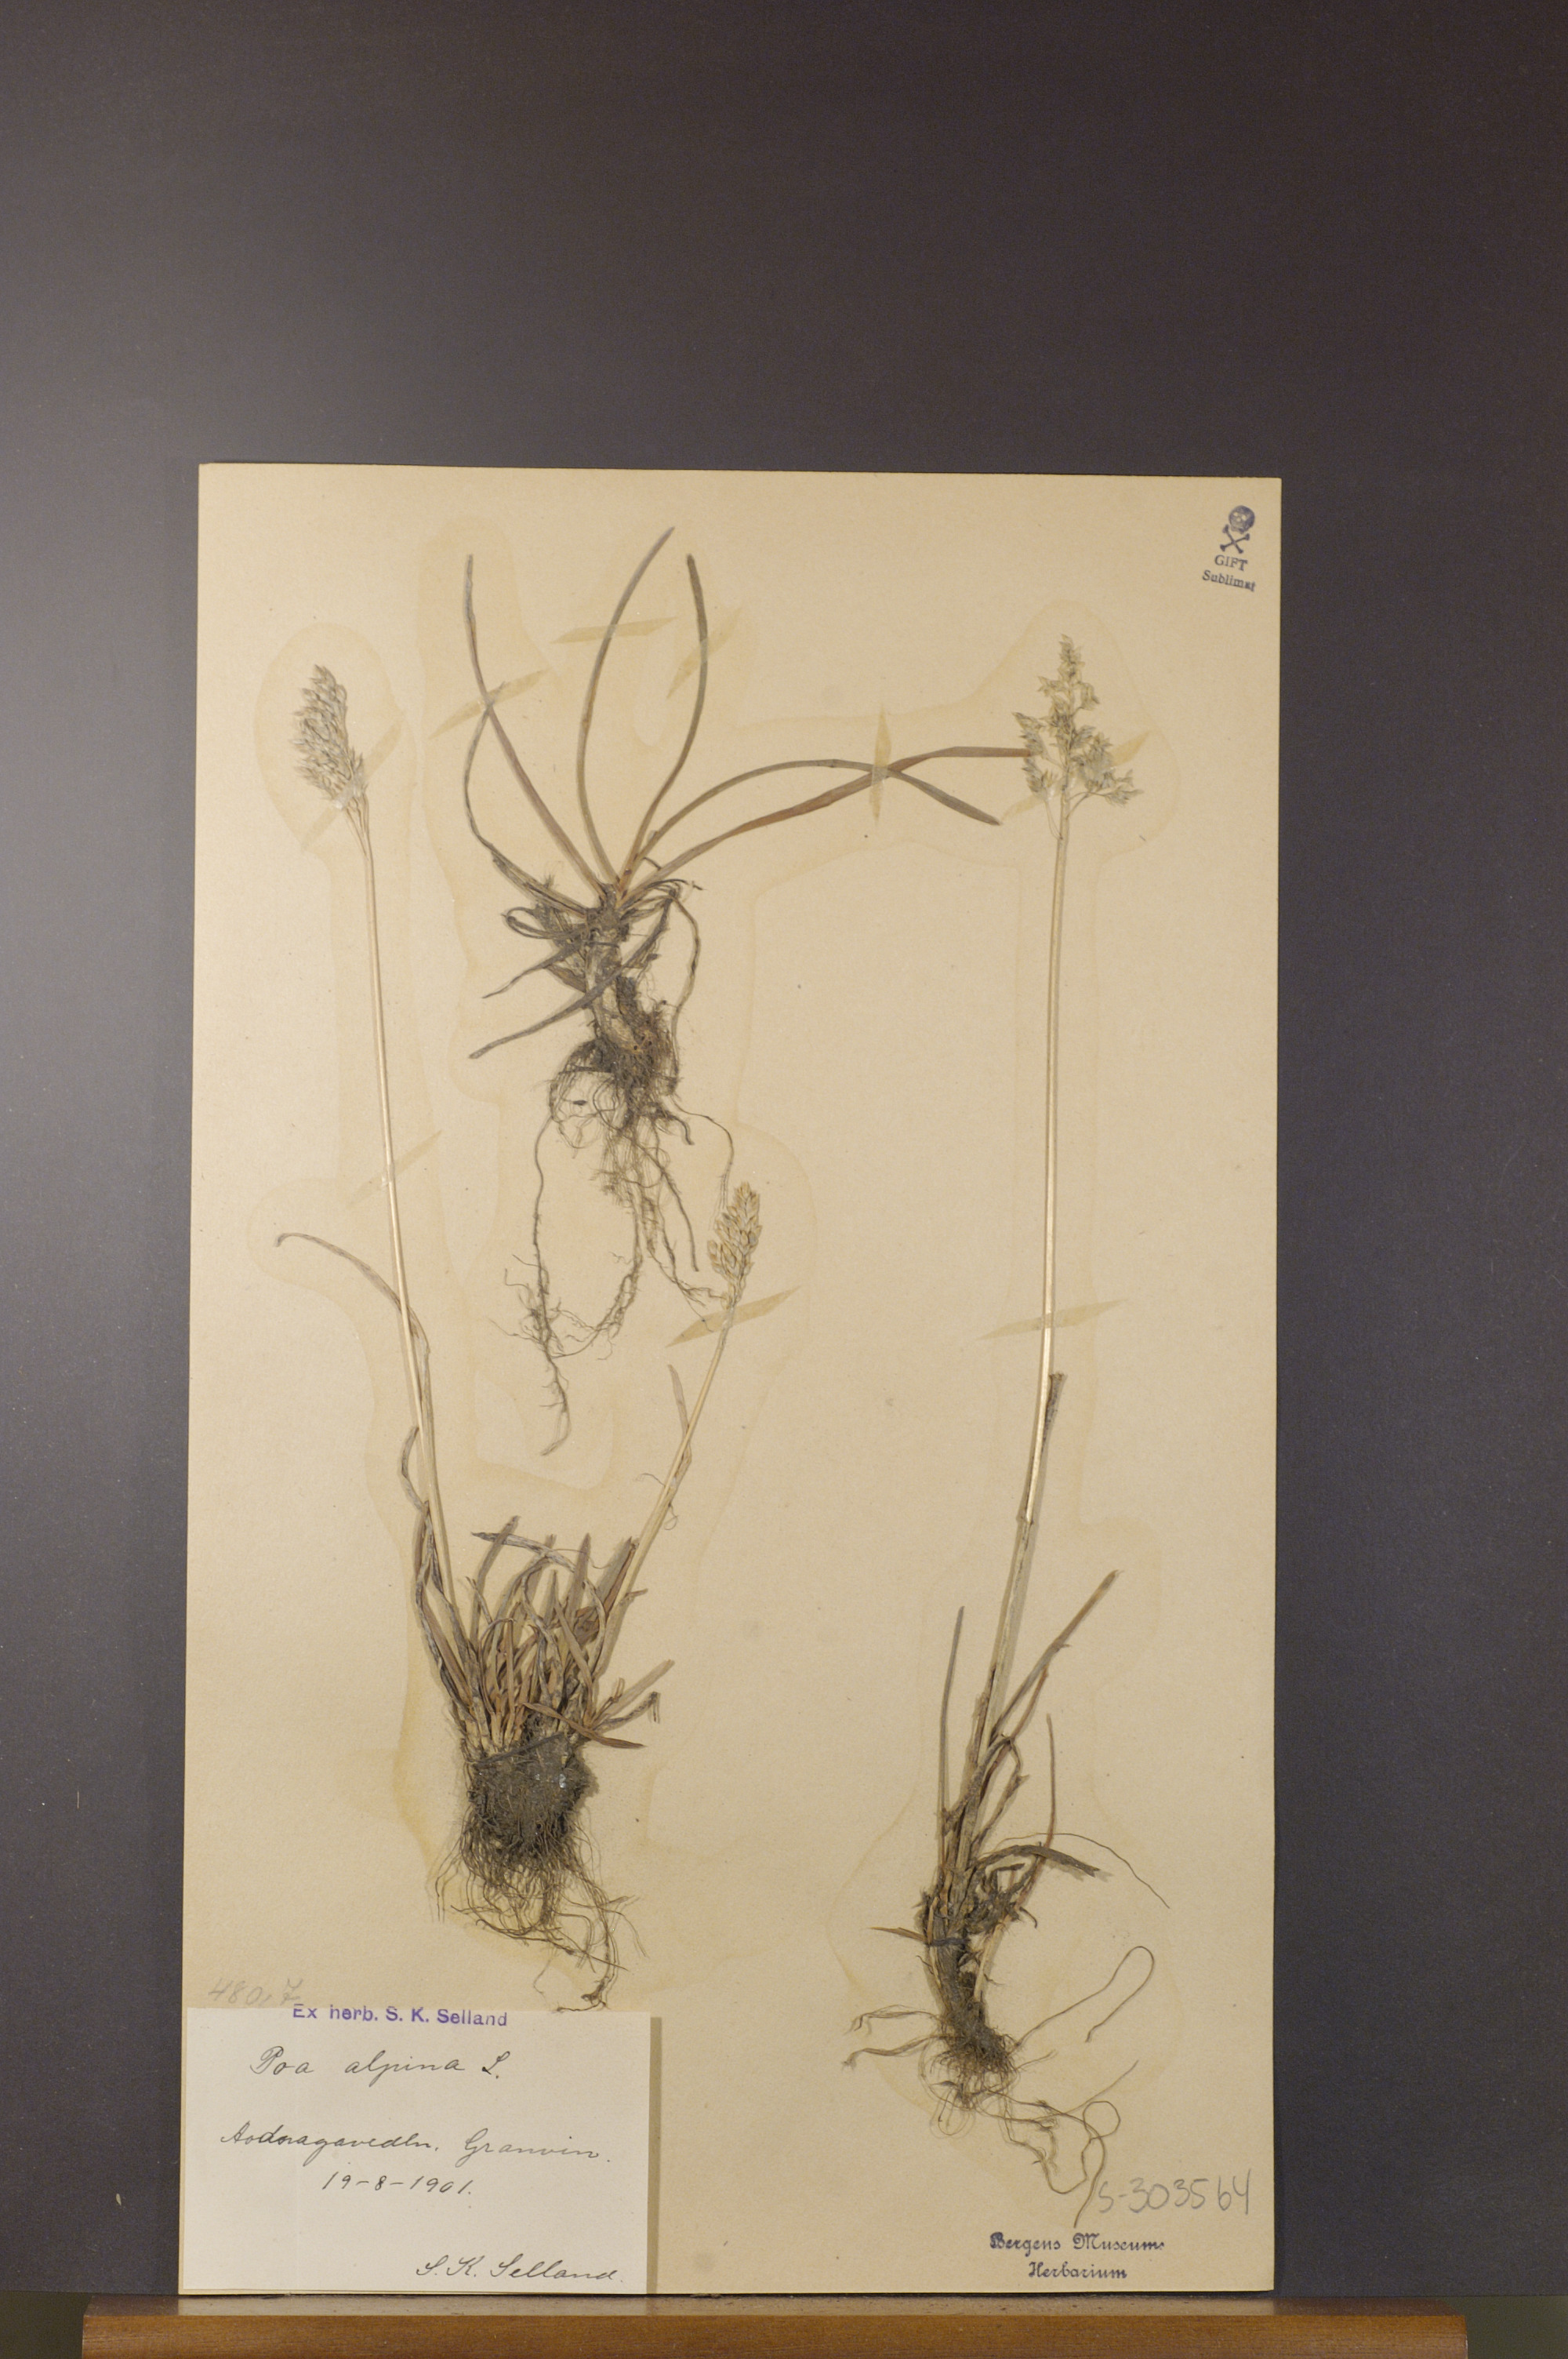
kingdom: Plantae
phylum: Tracheophyta
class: Liliopsida
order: Poales
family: Poaceae
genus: Poa
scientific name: Poa alpina
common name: Alpine bluegrass
